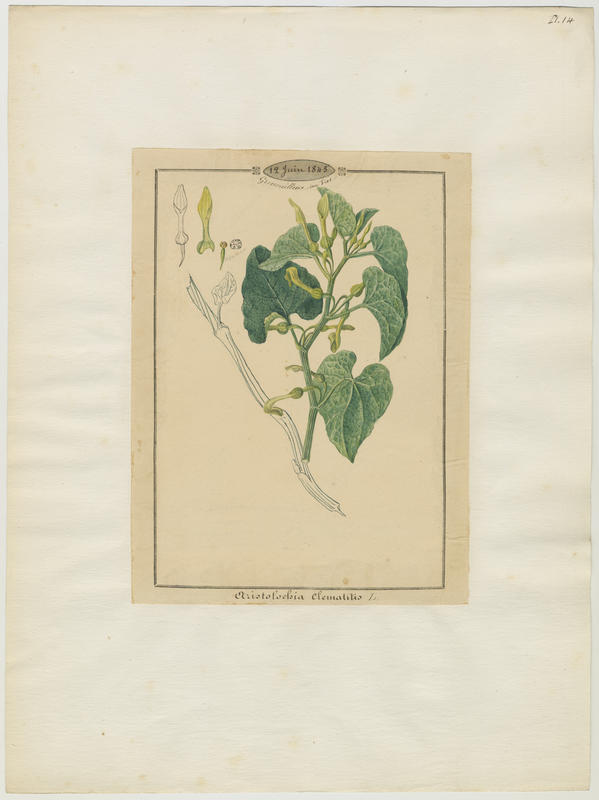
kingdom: Plantae
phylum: Tracheophyta
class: Magnoliopsida
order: Piperales
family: Aristolochiaceae
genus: Aristolochia
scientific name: Aristolochia clematitis
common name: Birthwort
